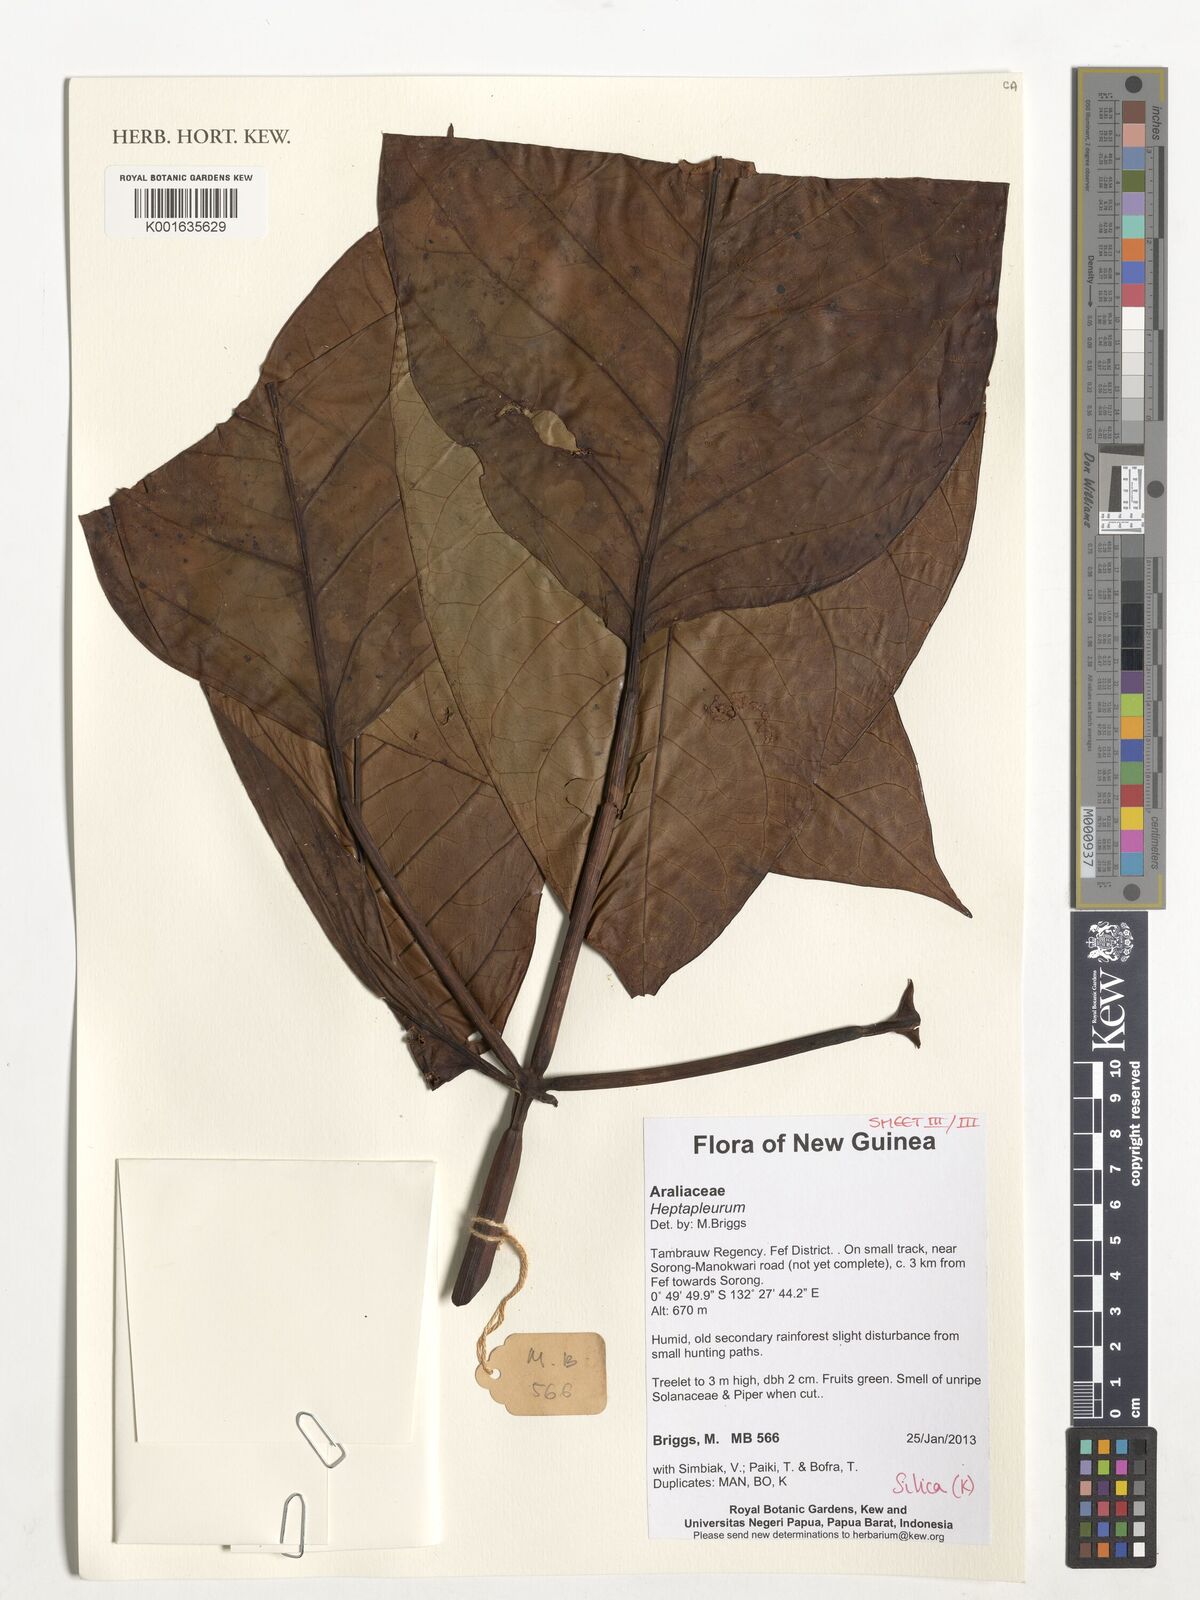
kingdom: Plantae
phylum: Tracheophyta
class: Magnoliopsida
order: Apiales
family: Araliaceae
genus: Heptapleurum
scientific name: Heptapleurum
